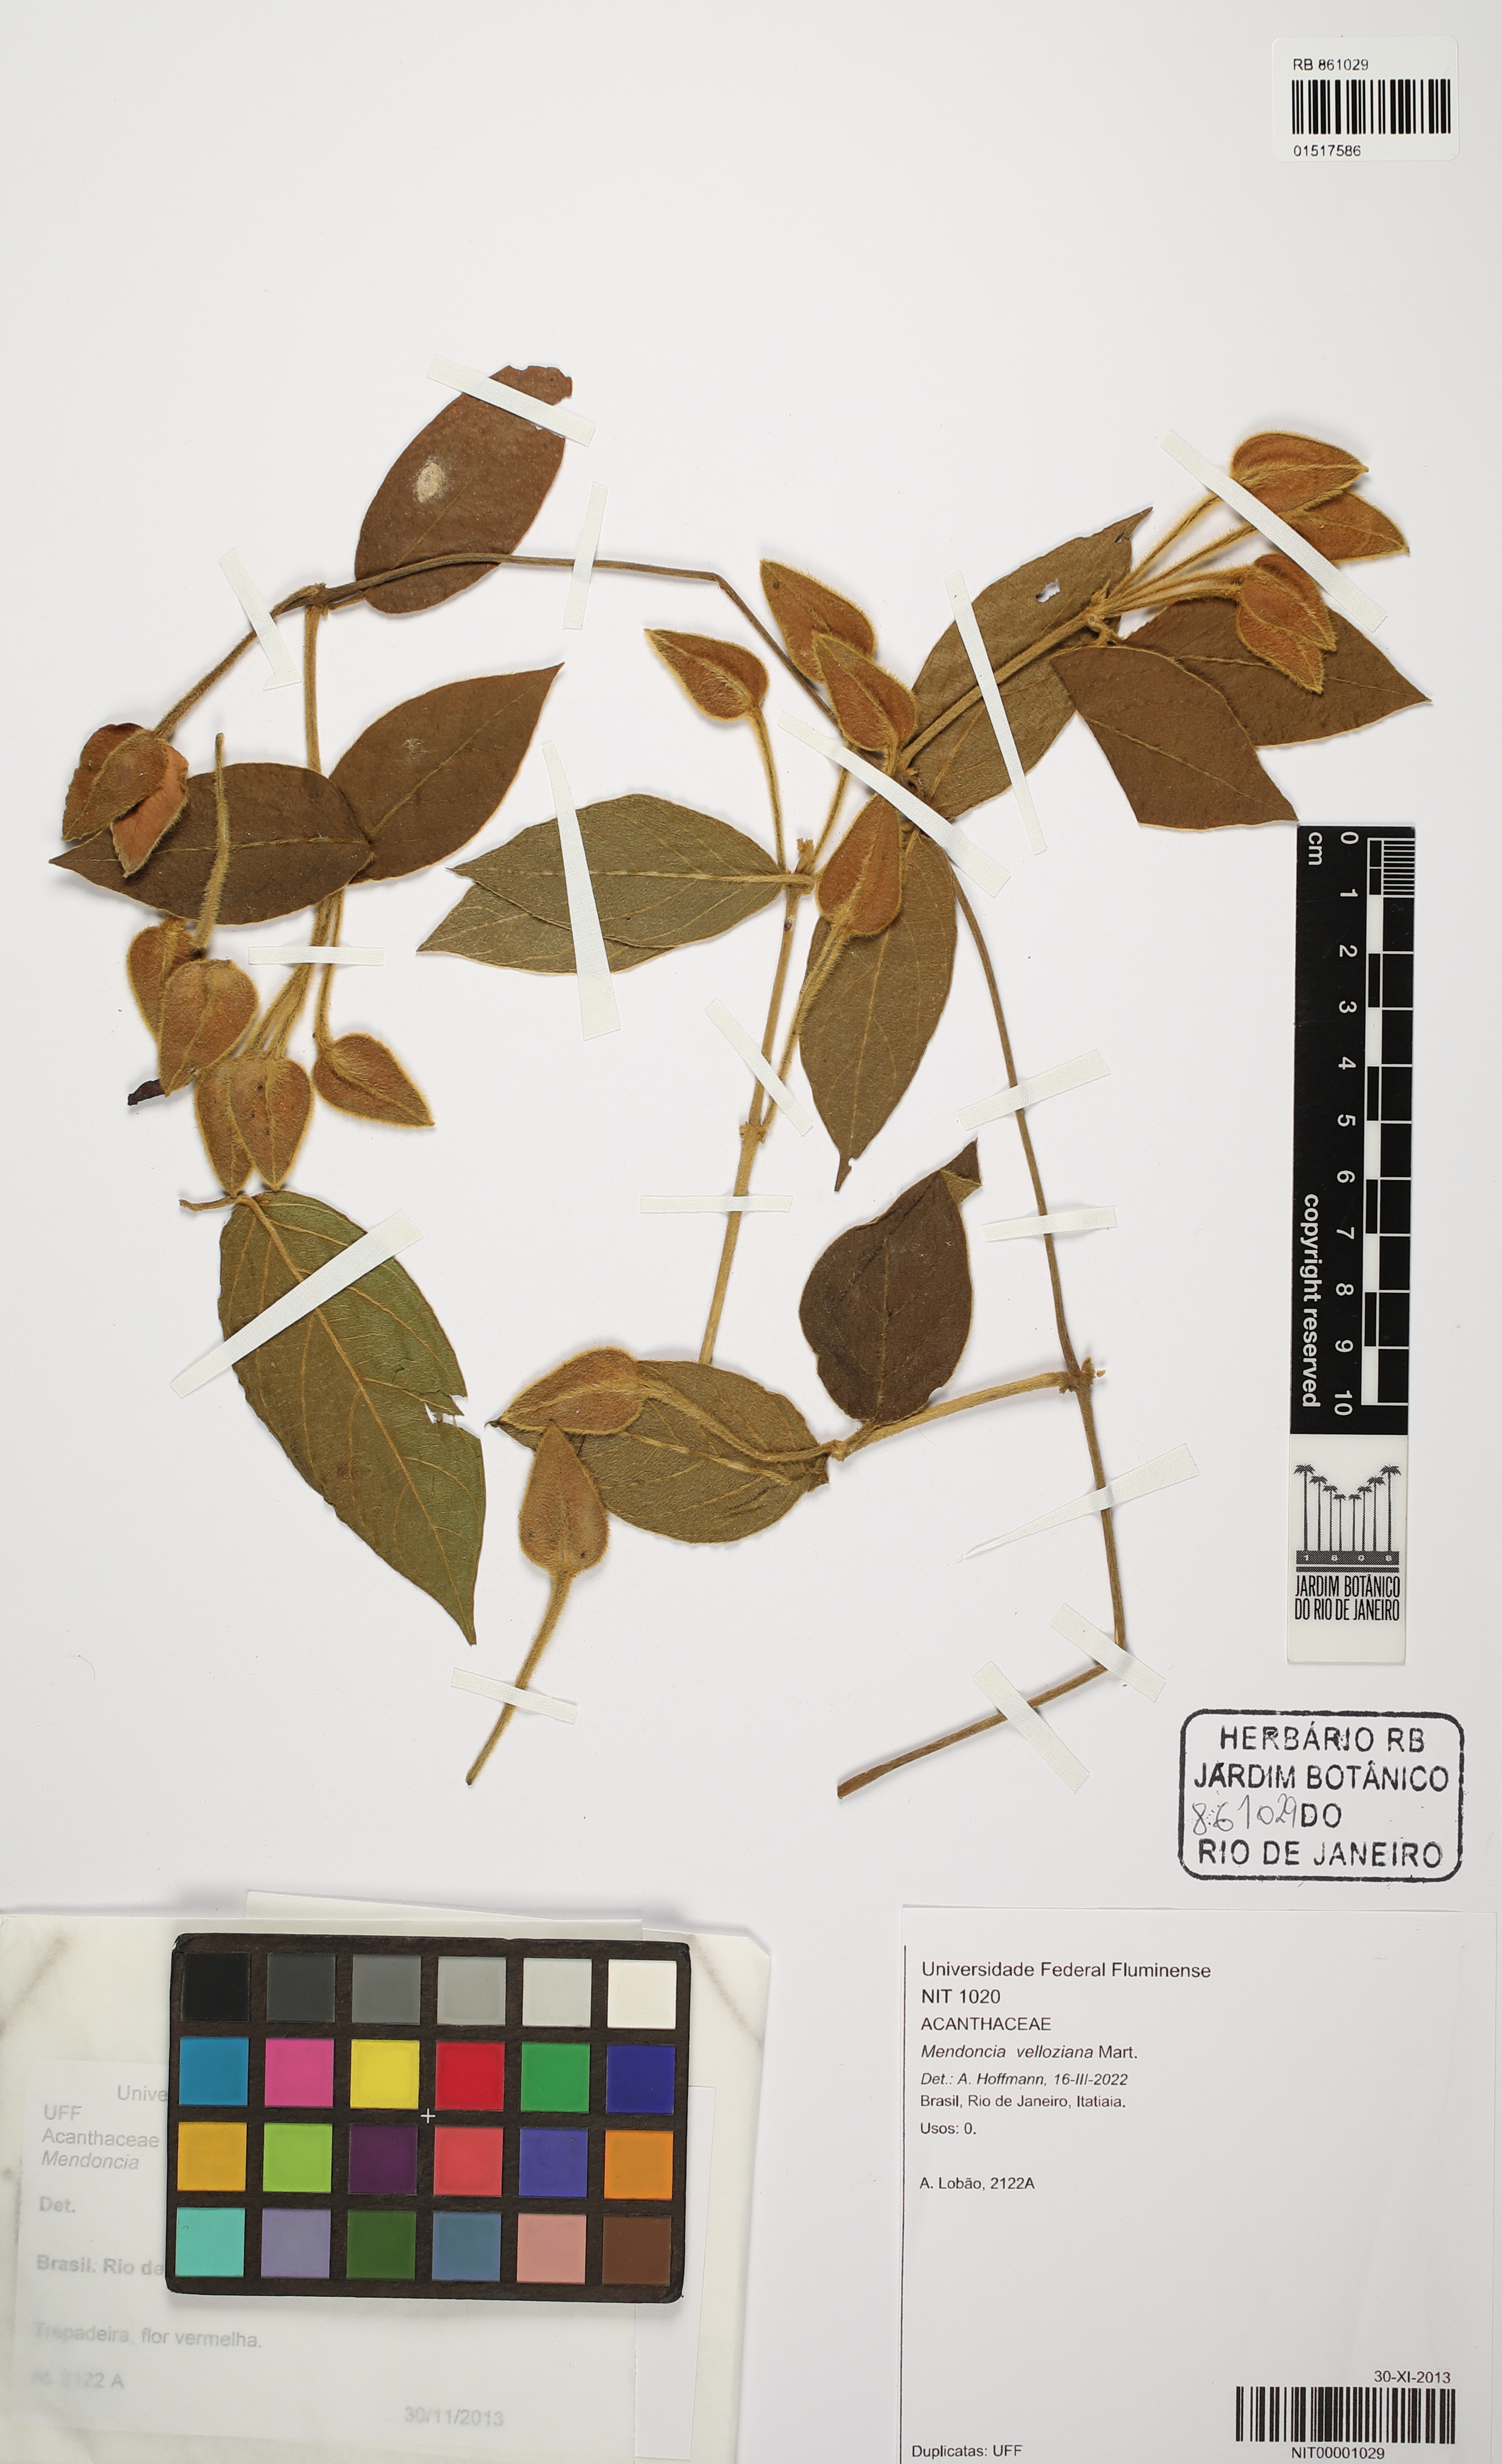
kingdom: Plantae
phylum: Tracheophyta
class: Magnoliopsida
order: Lamiales
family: Acanthaceae
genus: Mendoncia
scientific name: Mendoncia velloziana
